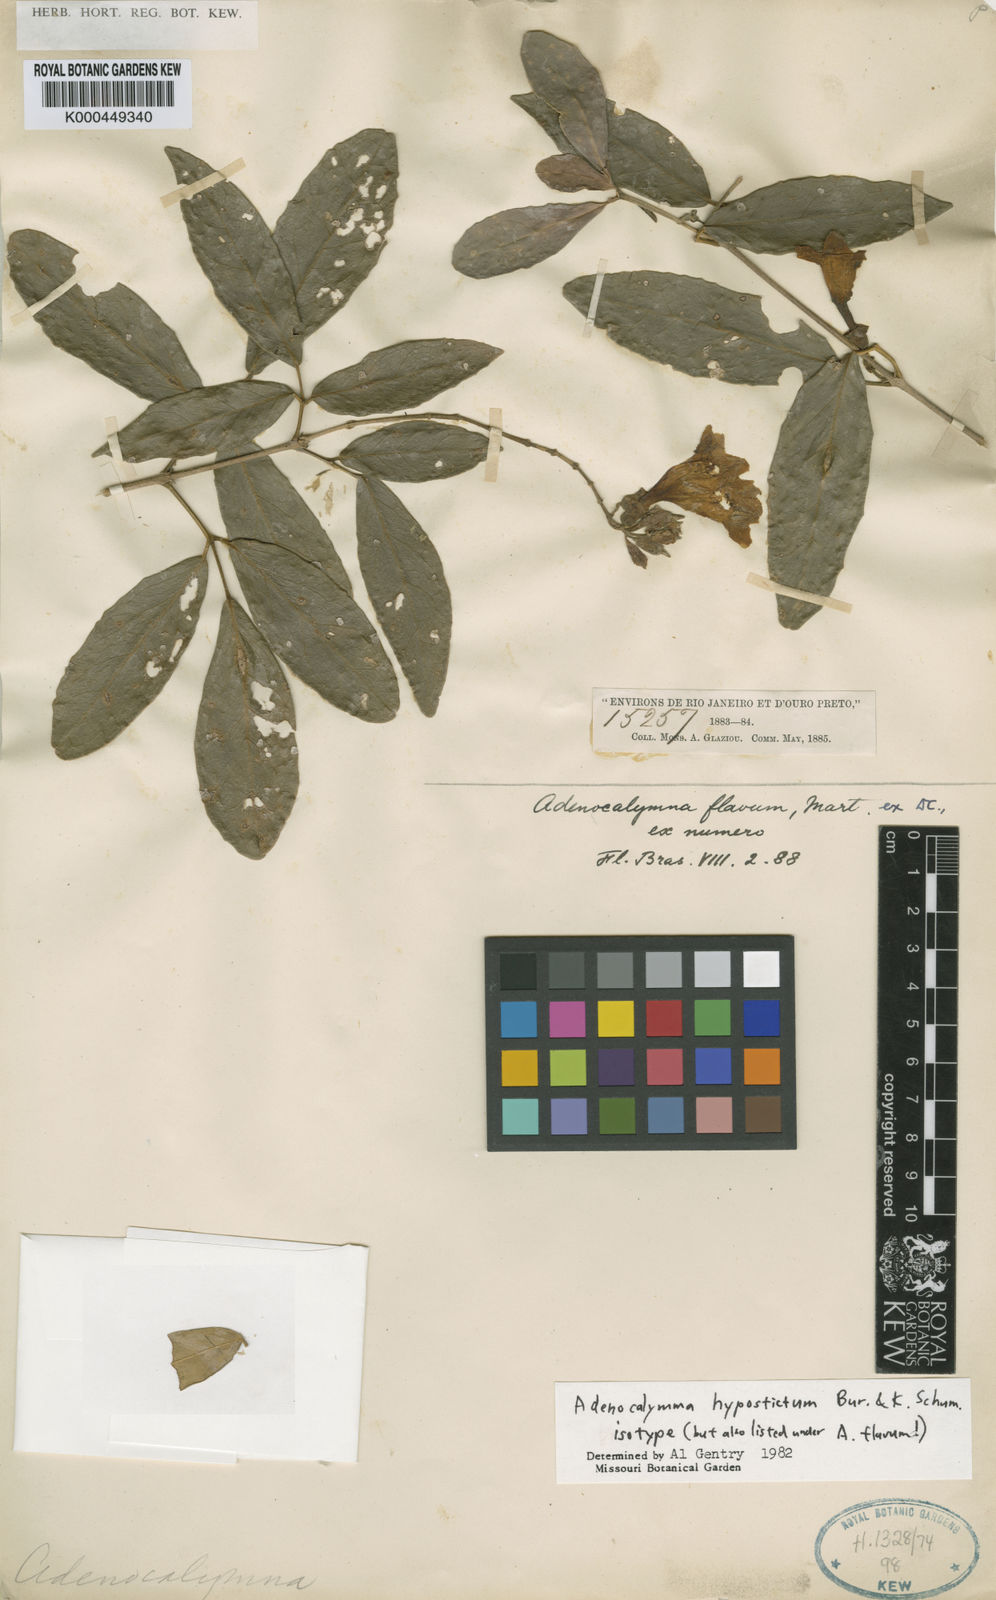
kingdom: Plantae
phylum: Tracheophyta
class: Magnoliopsida
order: Lamiales
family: Bignoniaceae
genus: Adenocalymma
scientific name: Adenocalymma hypostictum
